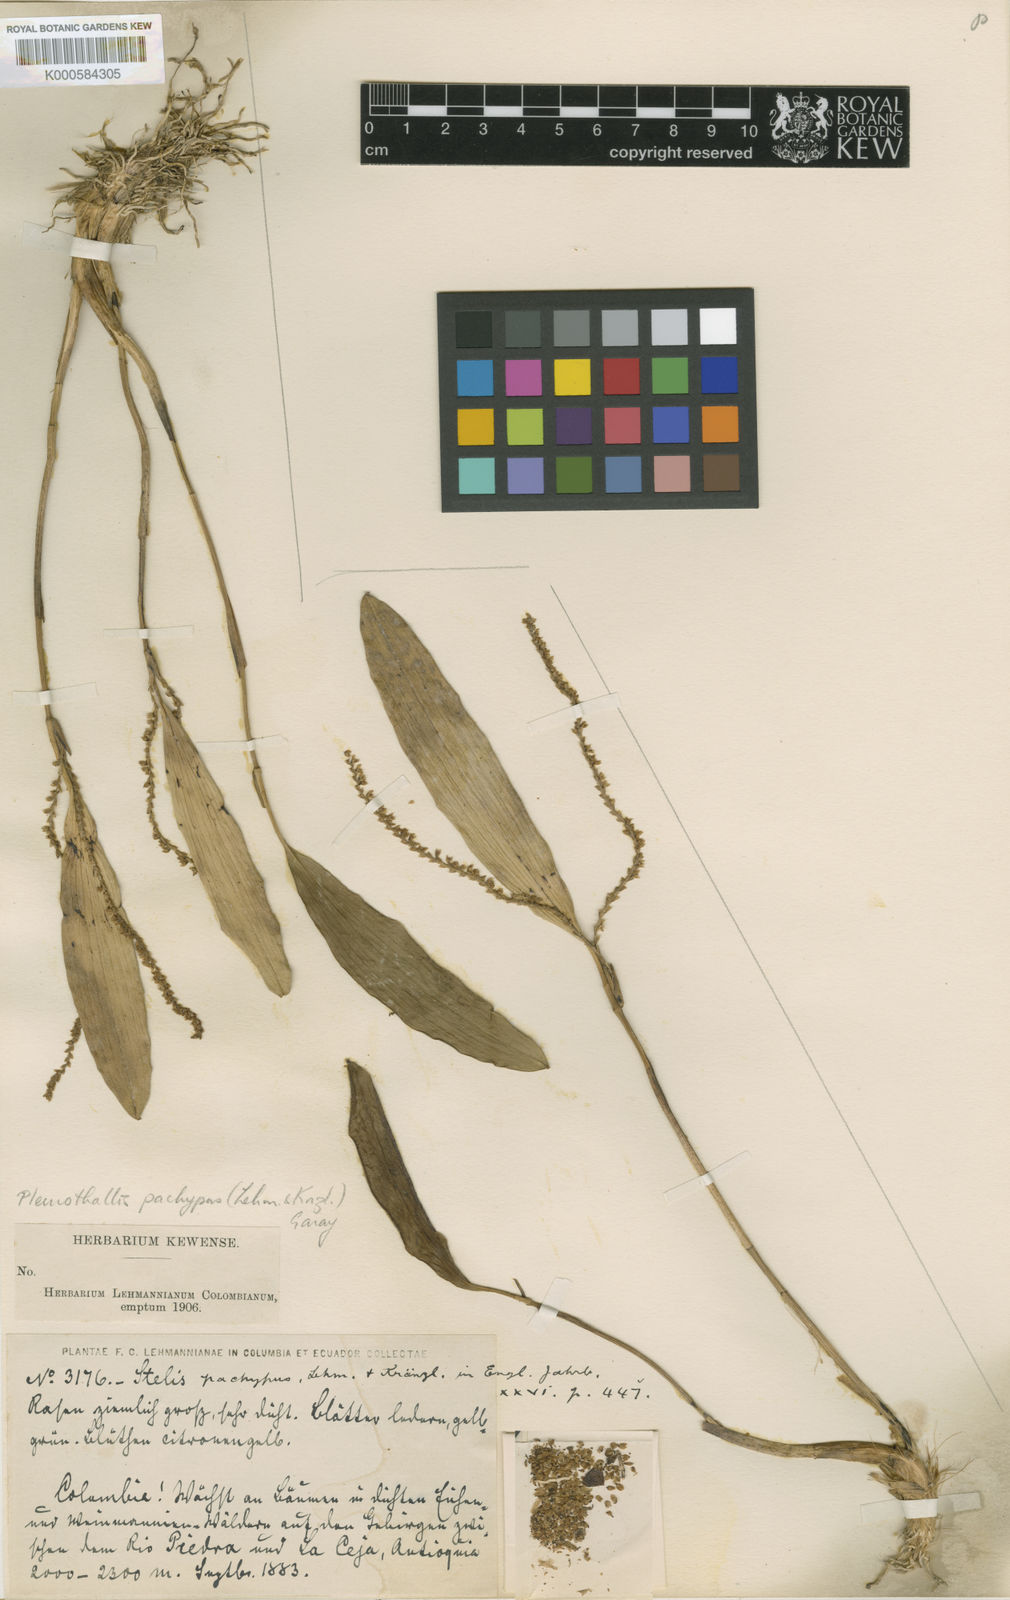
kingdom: Plantae
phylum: Tracheophyta
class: Liliopsida
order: Asparagales
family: Orchidaceae
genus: Stelis
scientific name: Stelis pachypus
